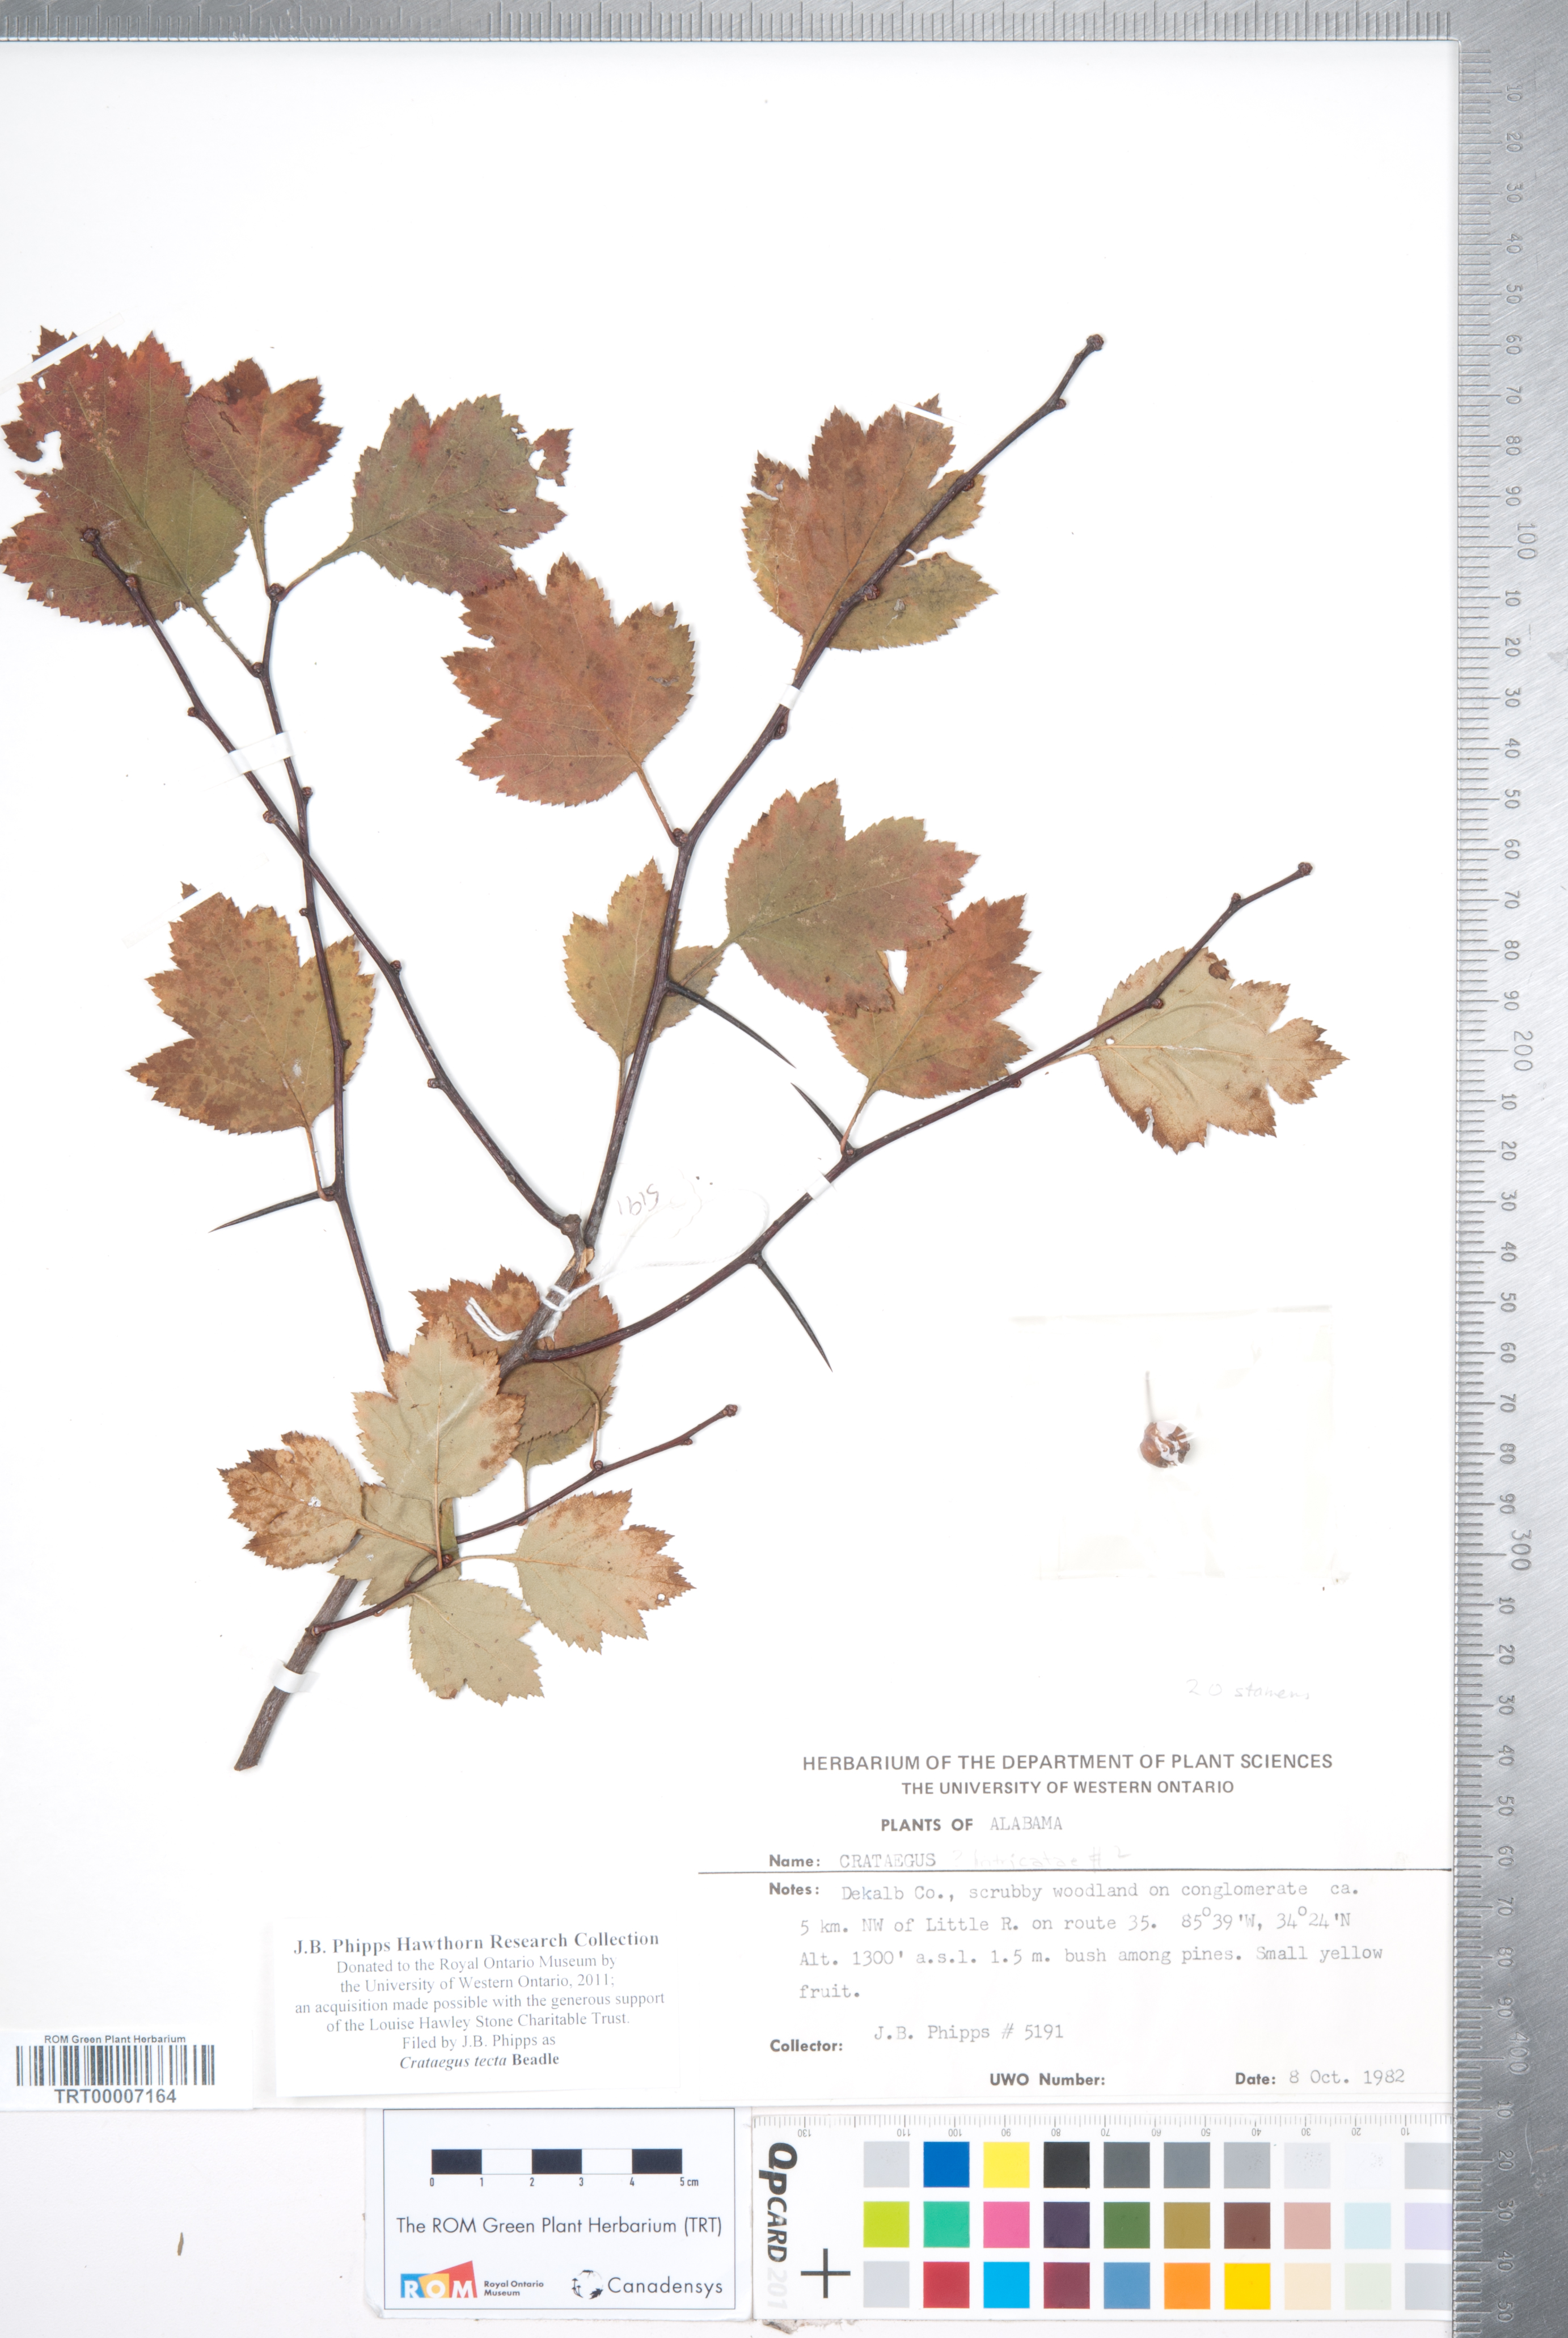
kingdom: Plantae
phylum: Tracheophyta
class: Magnoliopsida
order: Rosales
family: Rosaceae
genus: Crataegus
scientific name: Crataegus pulcherrima
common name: Beautiful hawthorn
